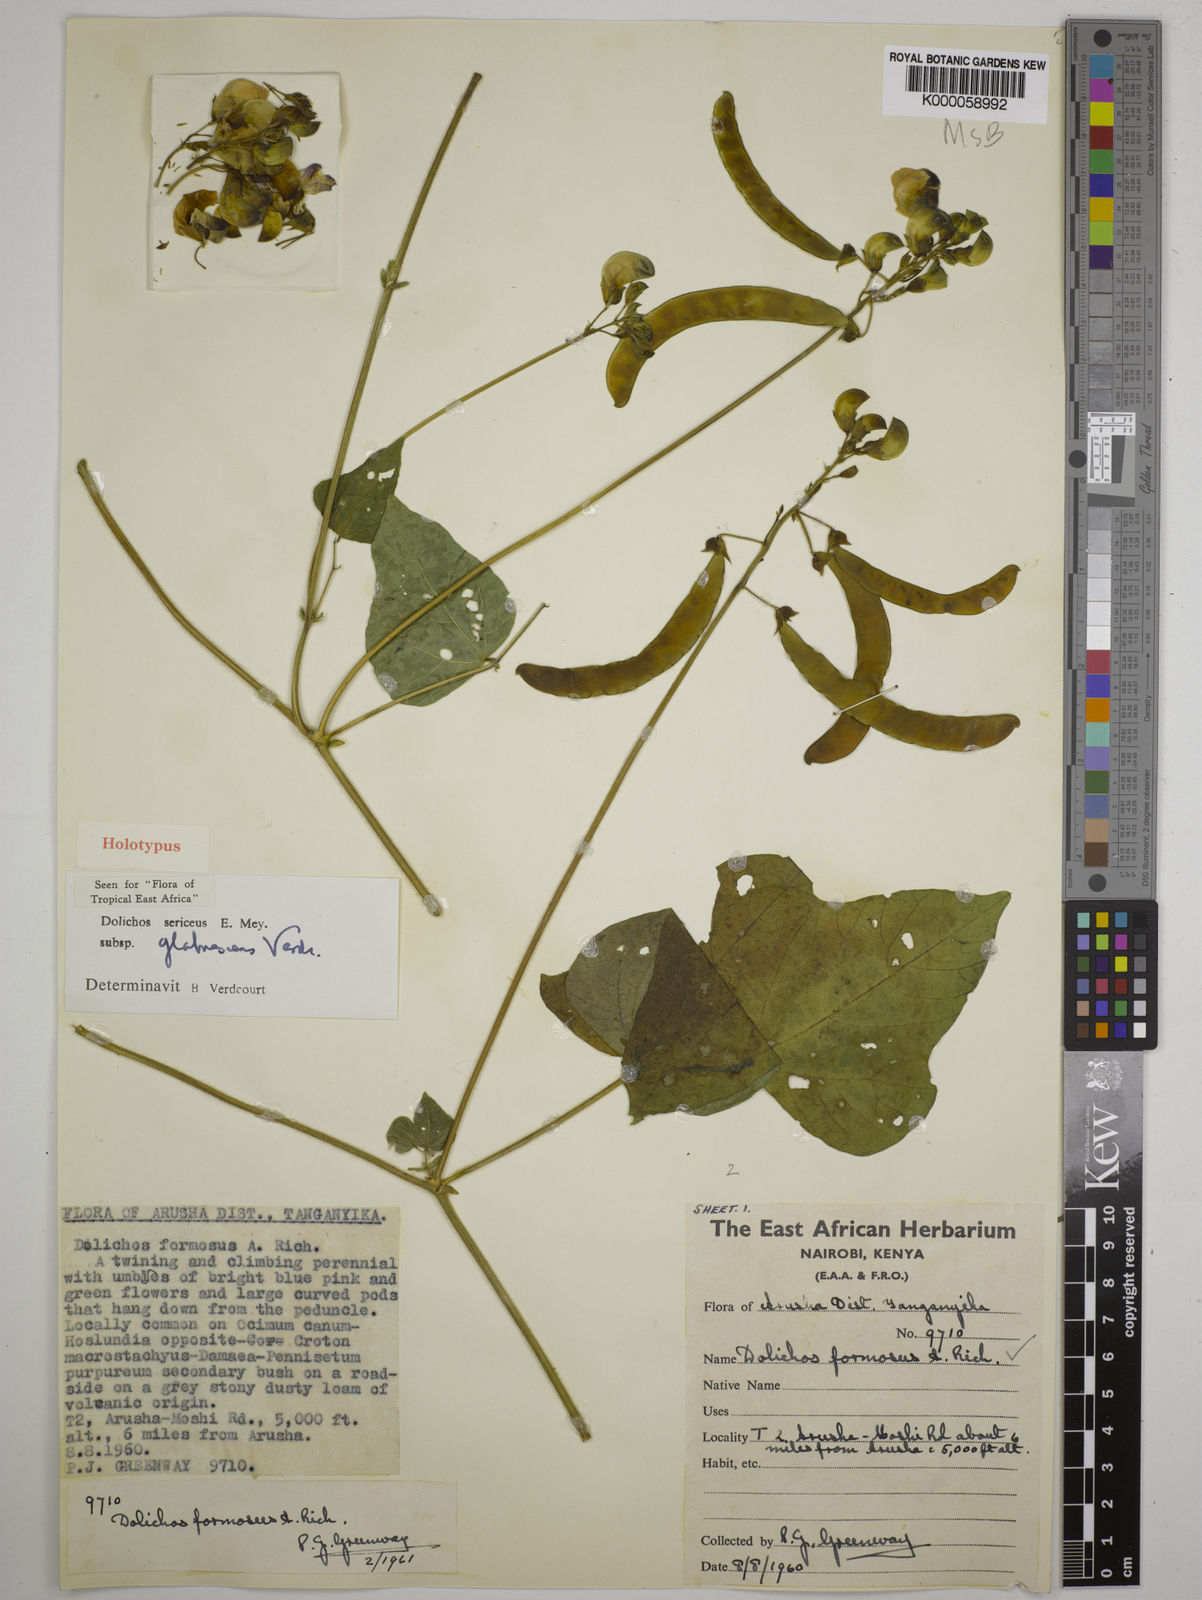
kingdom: Plantae
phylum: Tracheophyta
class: Magnoliopsida
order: Fabales
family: Fabaceae
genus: Dolichos
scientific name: Dolichos sericeus
